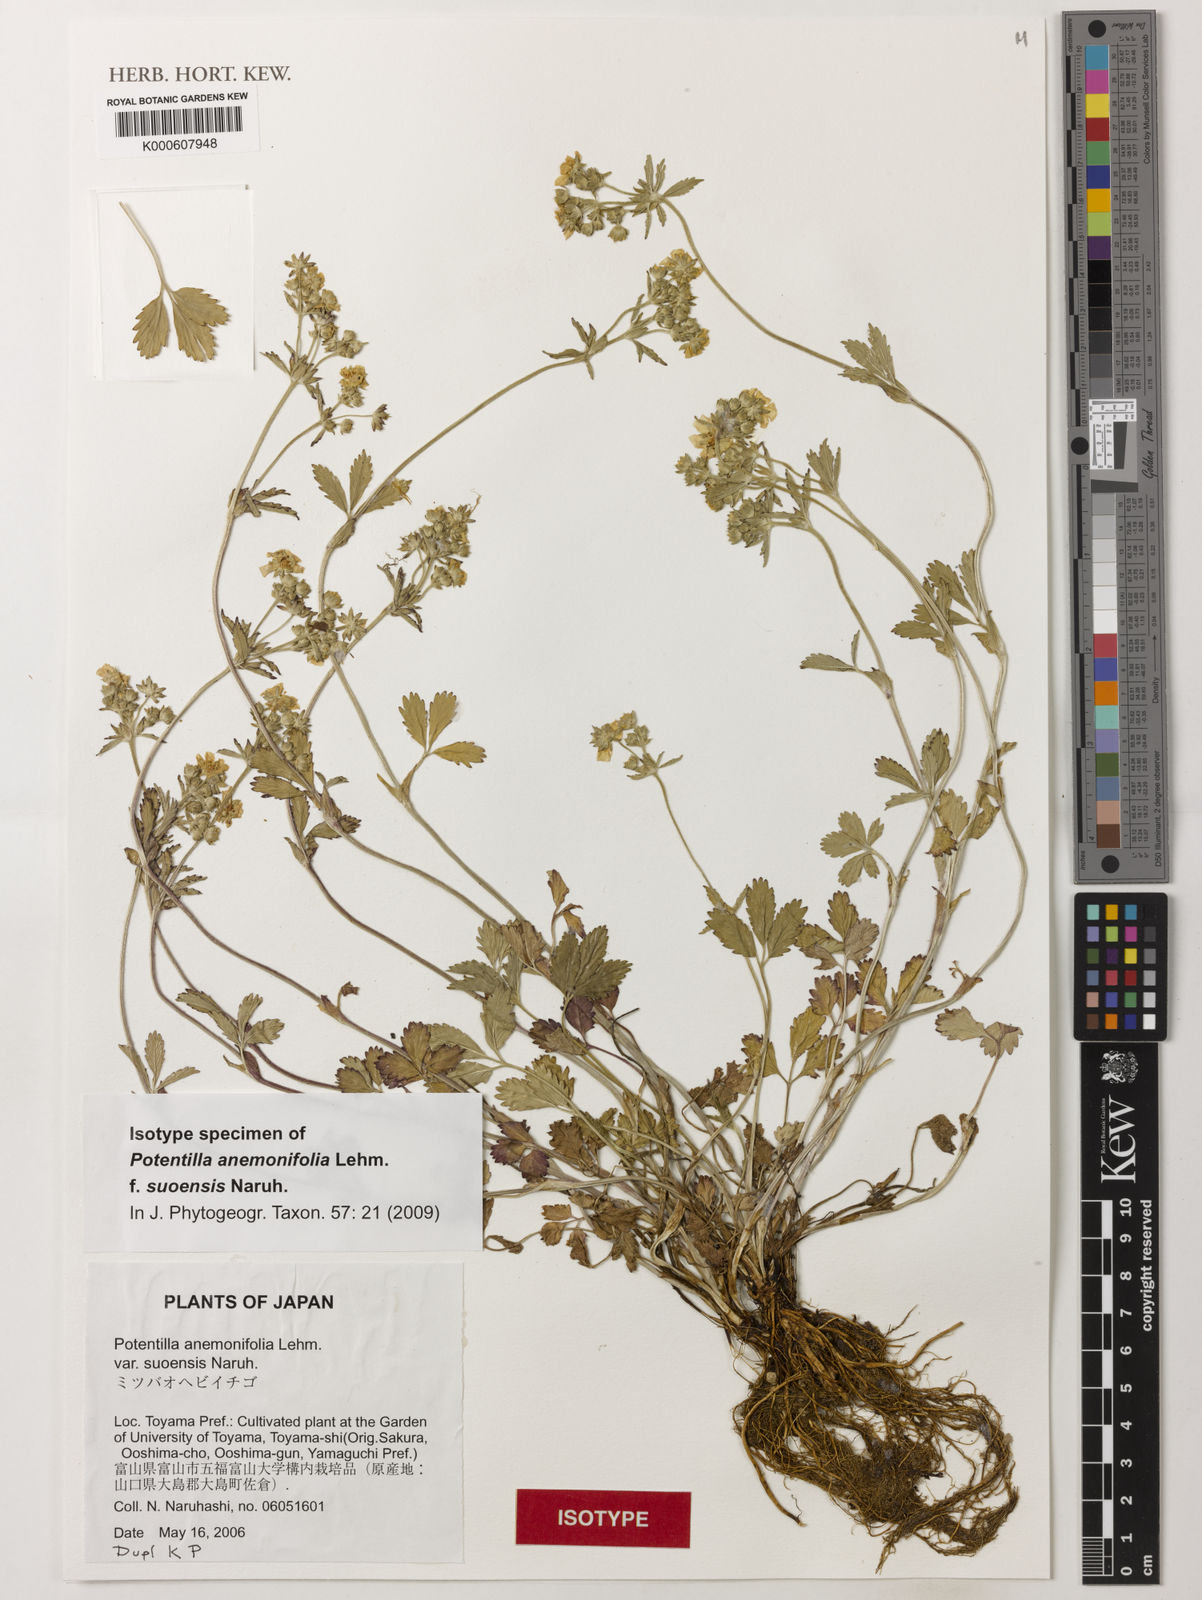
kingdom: Plantae
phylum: Tracheophyta
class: Magnoliopsida
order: Rosales
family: Rosaceae
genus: Potentilla
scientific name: Potentilla sundaica
